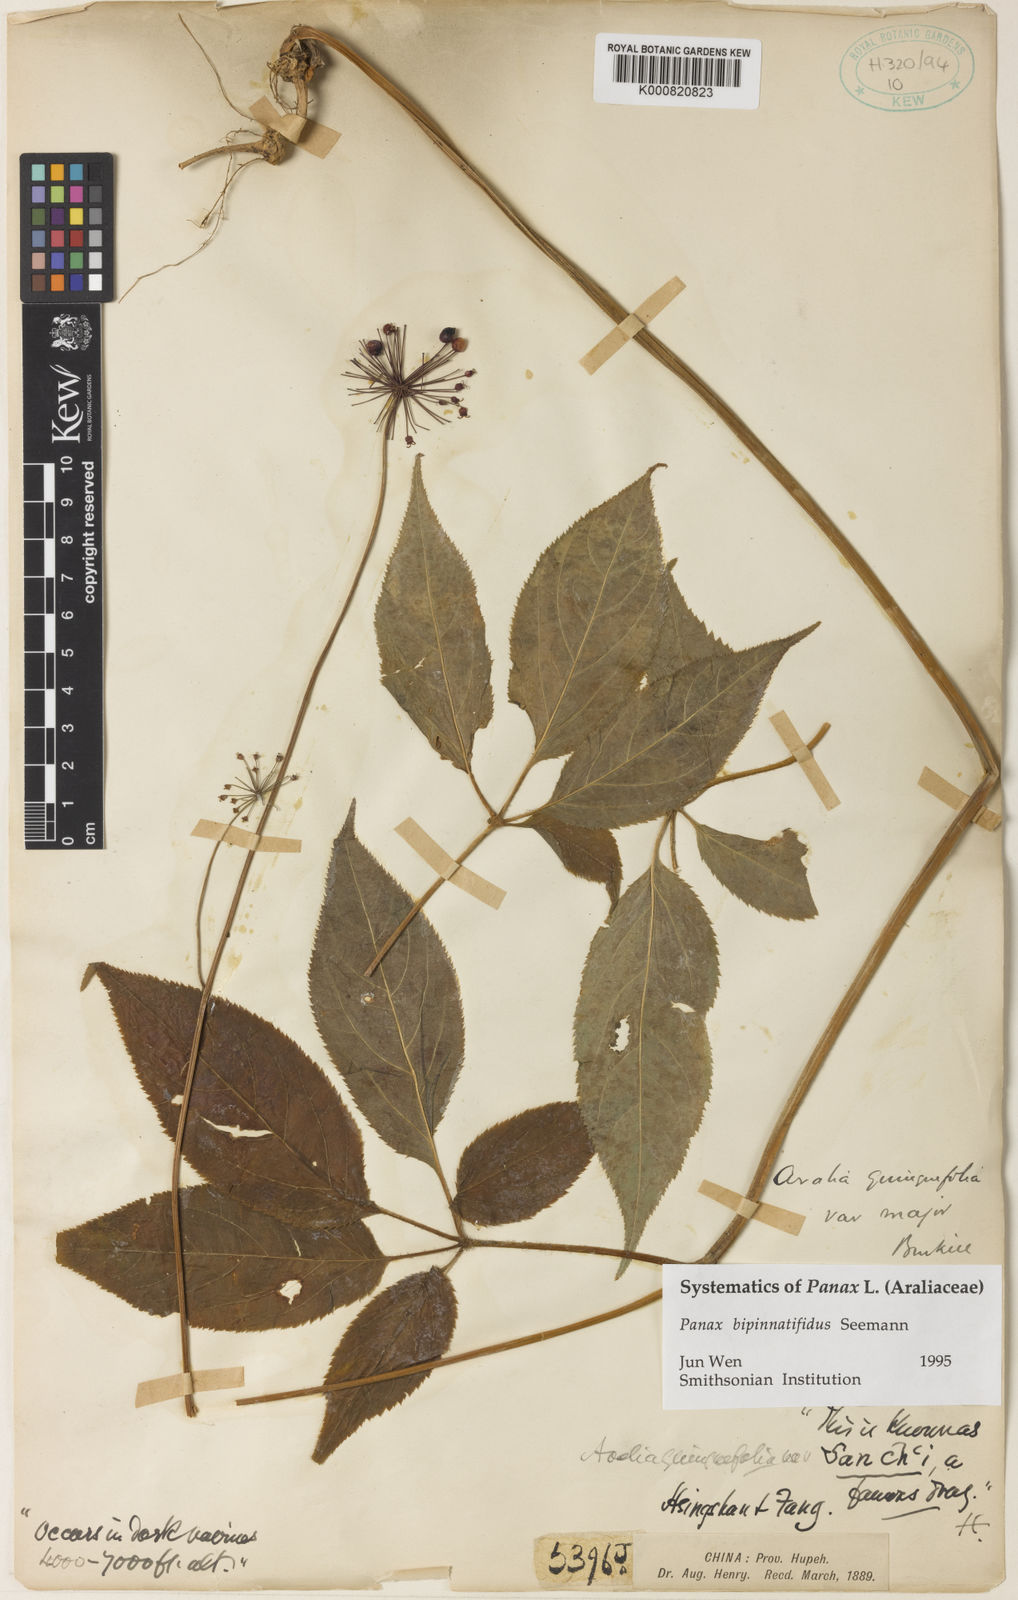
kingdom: Plantae
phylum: Tracheophyta
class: Magnoliopsida
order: Apiales
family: Araliaceae
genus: Panax
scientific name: Panax bipinnatifidus
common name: Feather-leaf bamboo ginseng
